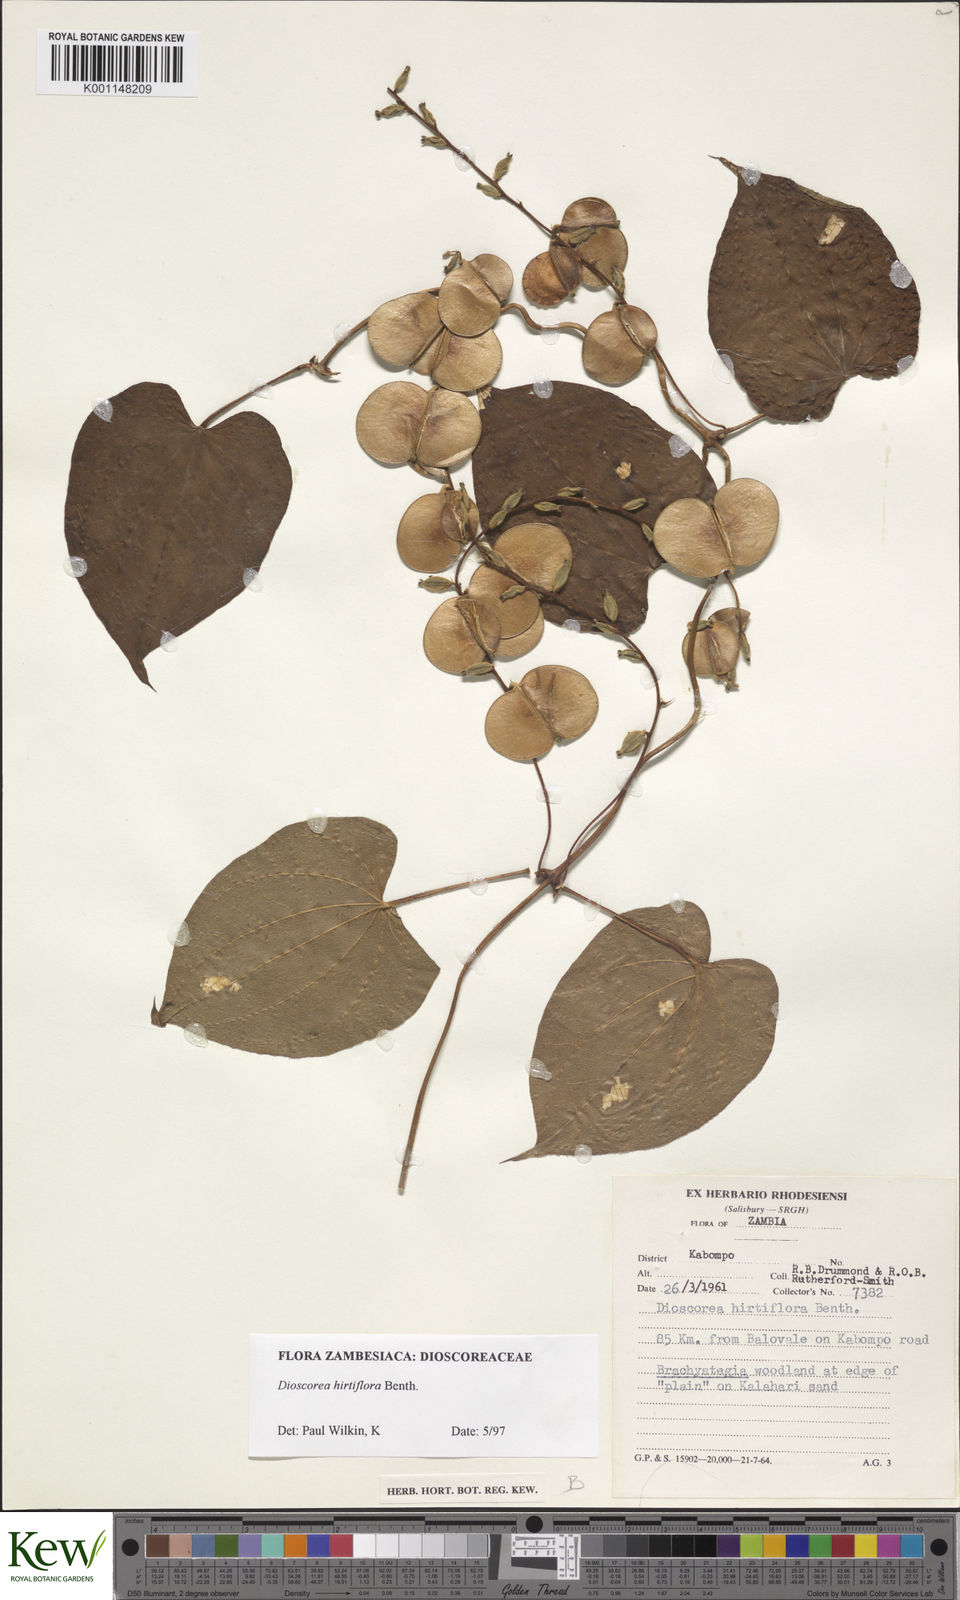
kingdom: Plantae
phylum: Tracheophyta
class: Liliopsida
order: Dioscoreales
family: Dioscoreaceae
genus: Dioscorea
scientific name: Dioscorea hirtiflora
